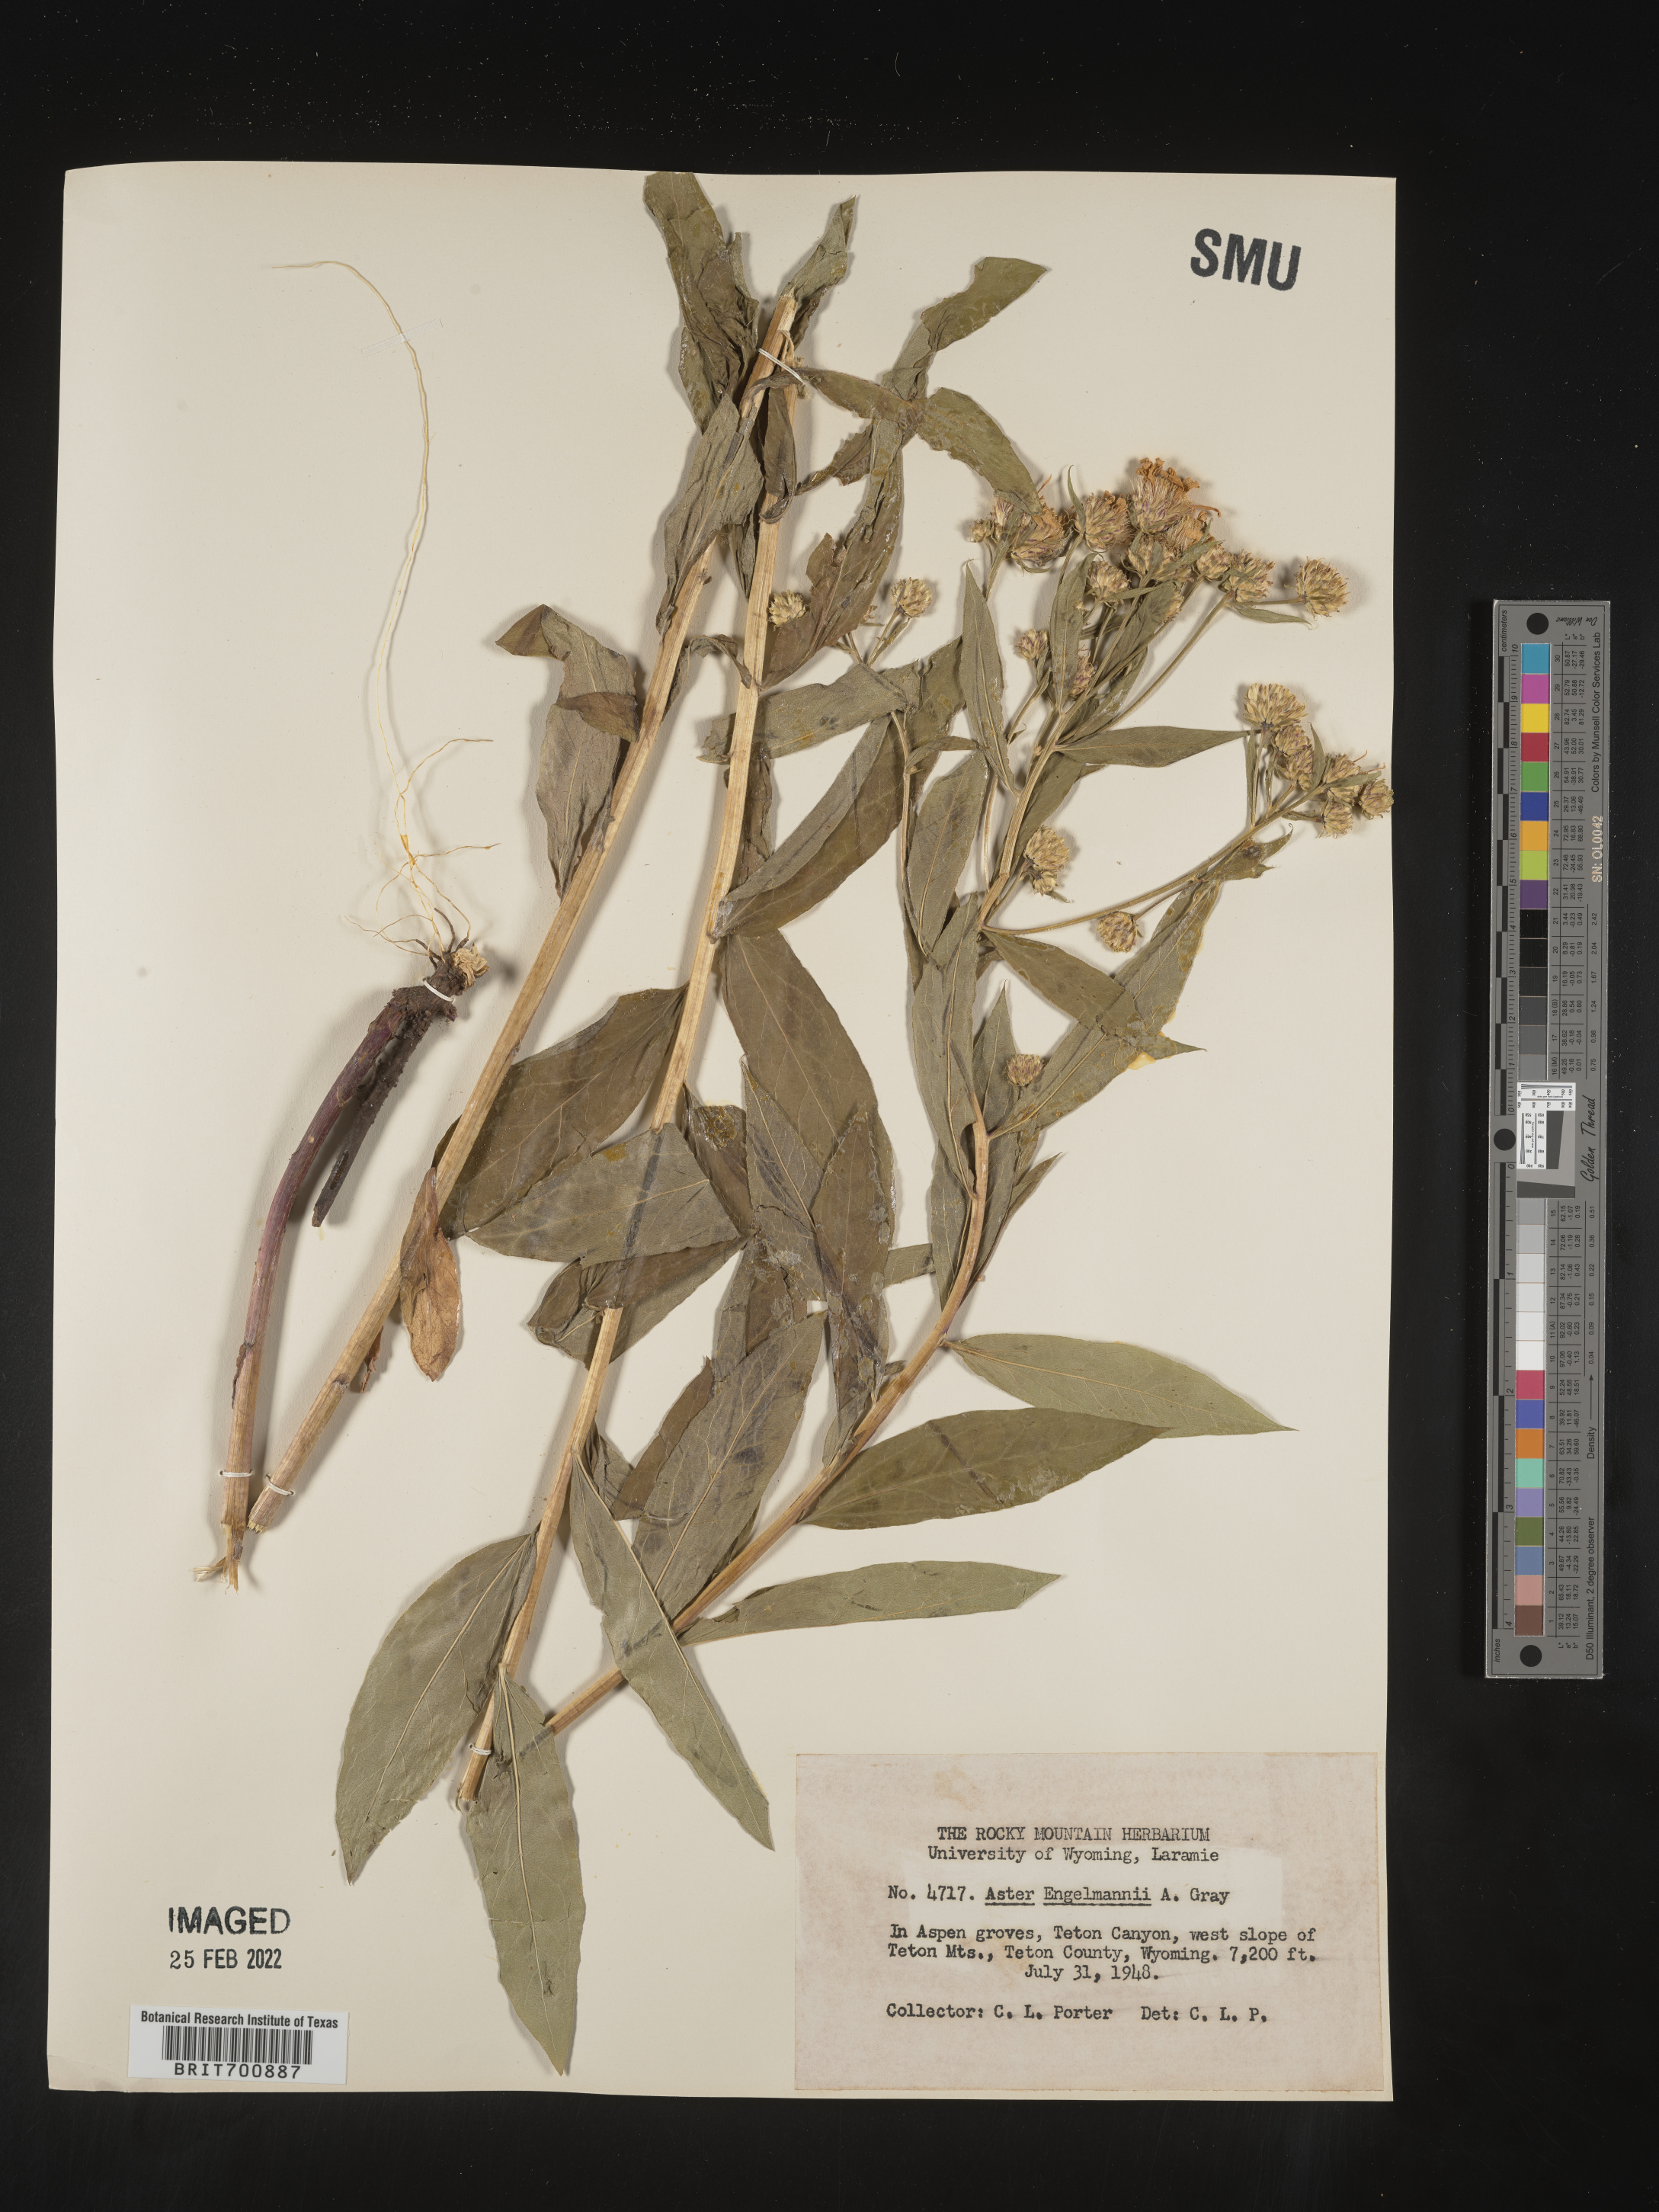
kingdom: Plantae
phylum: Tracheophyta
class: Magnoliopsida
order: Asterales
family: Asteraceae
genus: Eucephalus
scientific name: Eucephalus engelmannii
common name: Engelmann's aster
